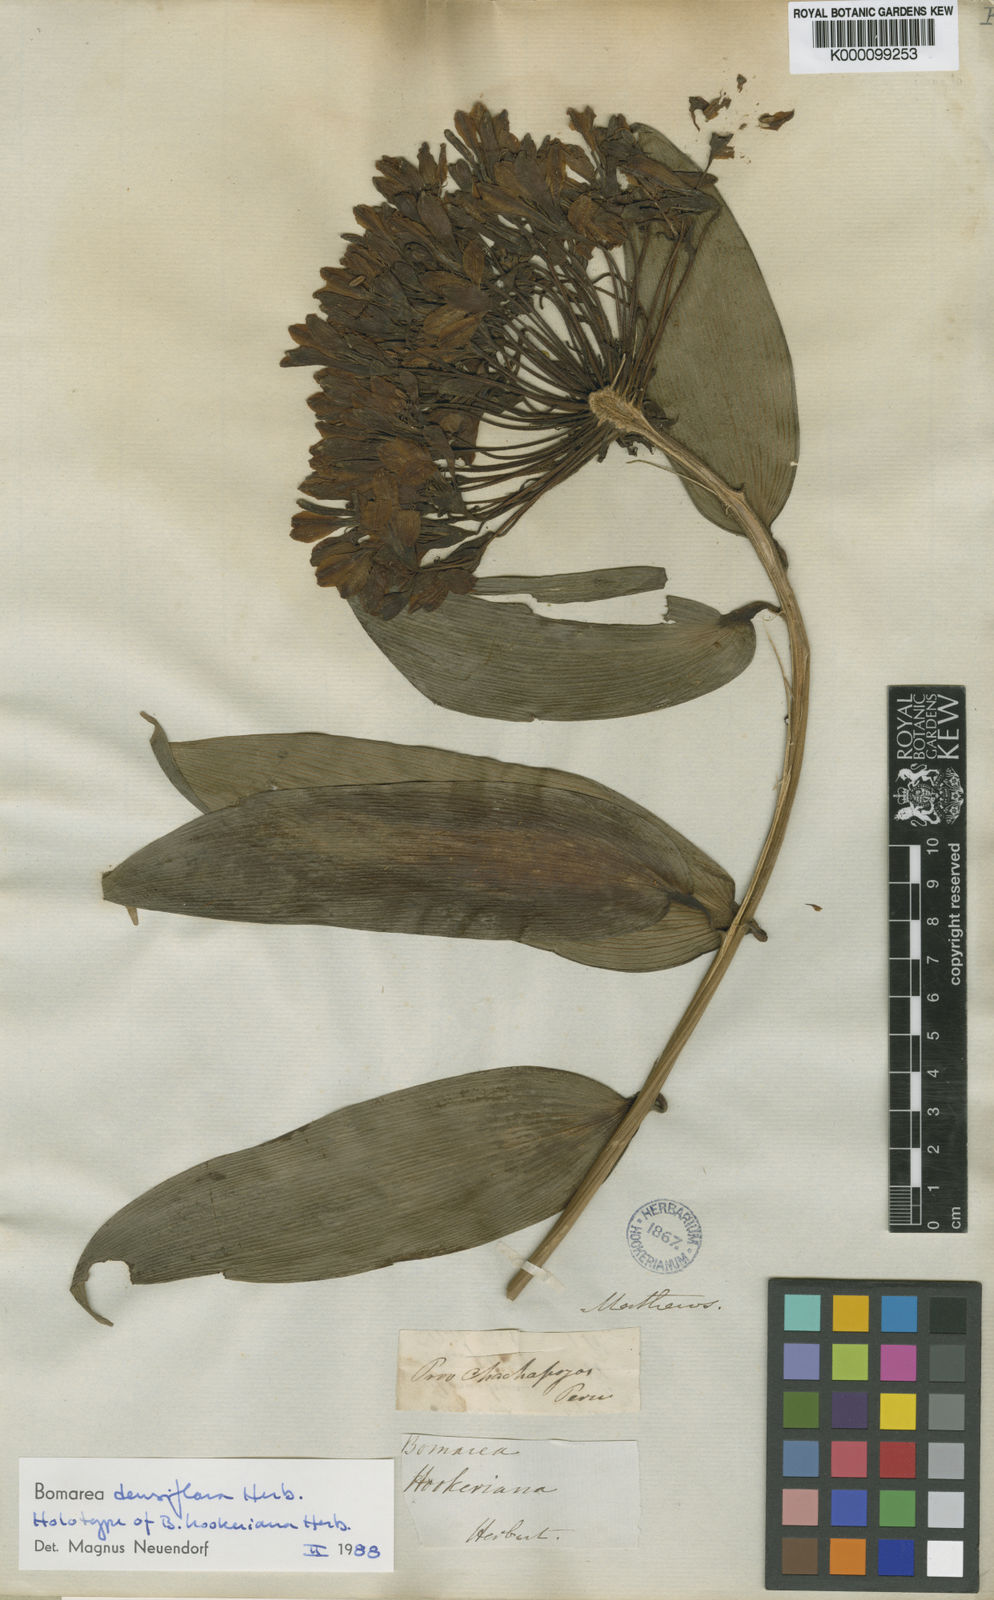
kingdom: Plantae
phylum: Tracheophyta
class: Liliopsida
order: Liliales
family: Alstroemeriaceae
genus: Bomarea
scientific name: Bomarea densiflora
